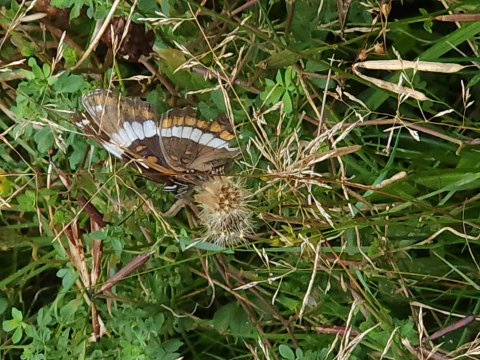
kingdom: Animalia
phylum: Arthropoda
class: Insecta
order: Lepidoptera
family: Nymphalidae
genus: Limenitis
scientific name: Limenitis arthemis
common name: Red-spotted Admiral
